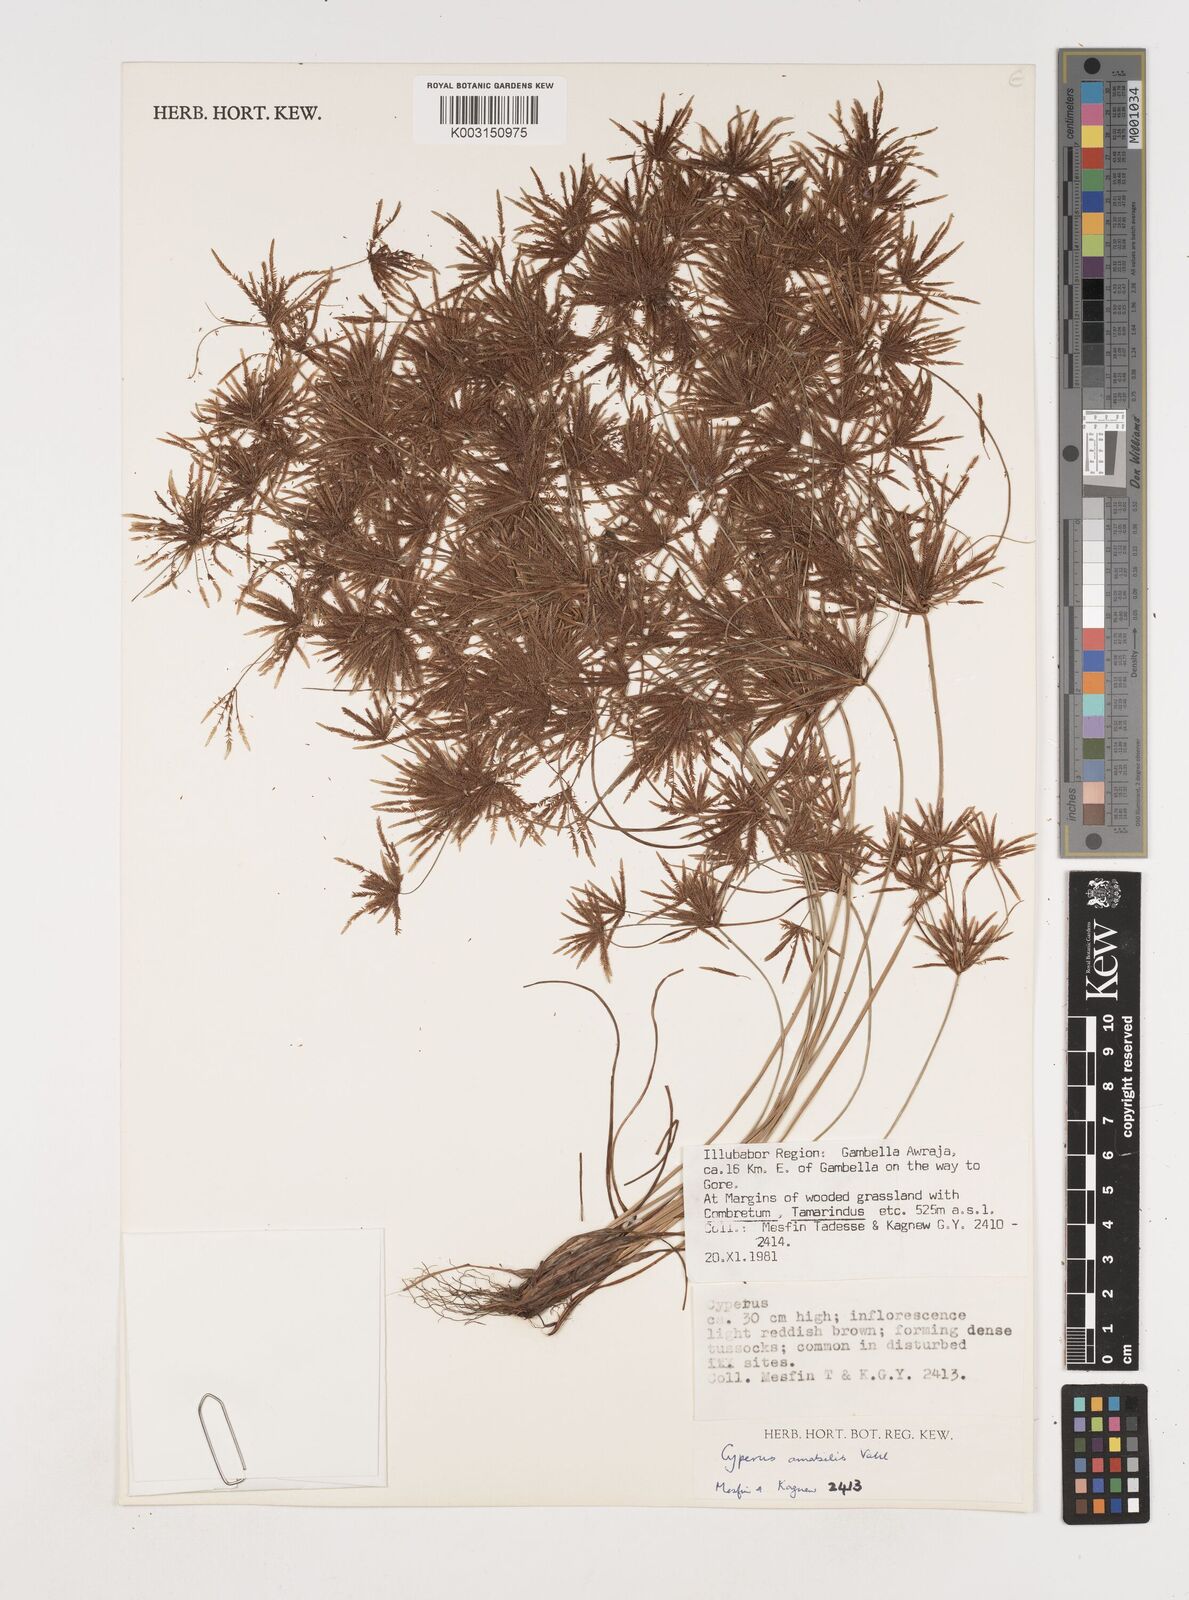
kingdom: Plantae
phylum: Tracheophyta
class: Liliopsida
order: Poales
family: Cyperaceae
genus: Cyperus
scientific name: Cyperus amabilis
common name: Foothill flat sedge
